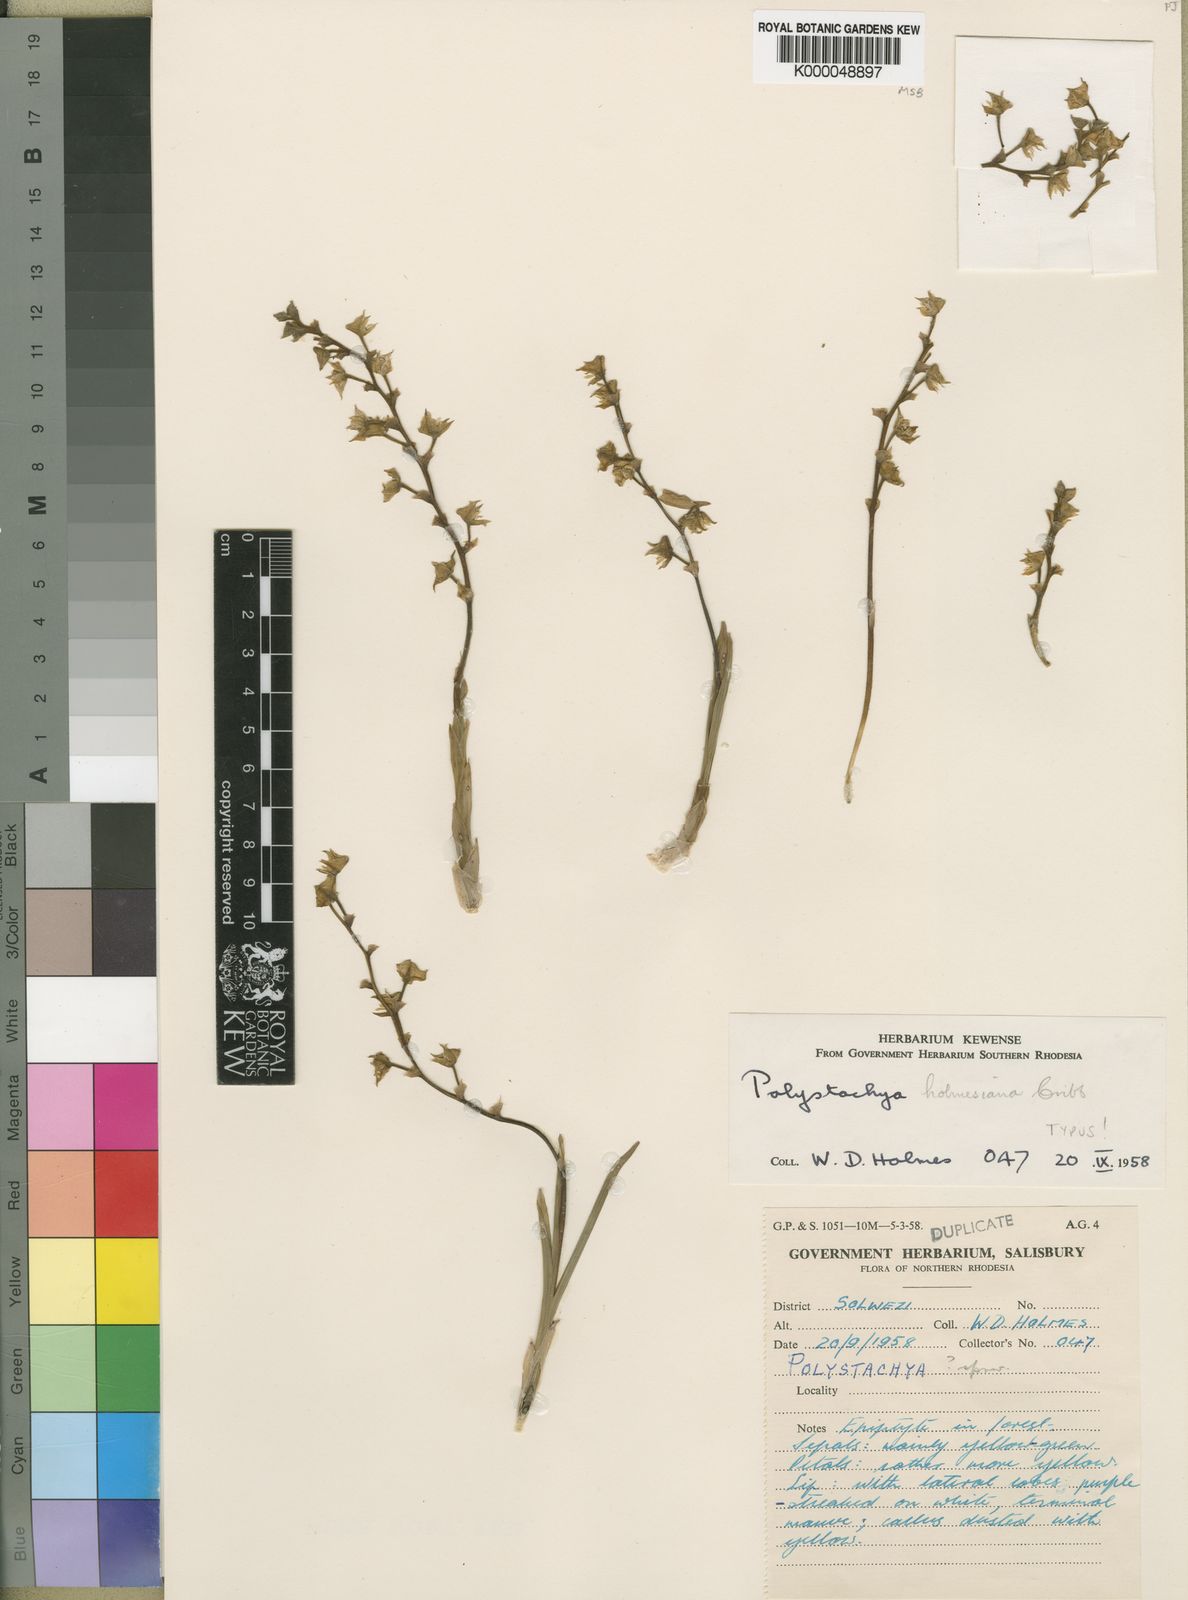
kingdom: Plantae
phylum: Tracheophyta
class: Liliopsida
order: Asparagales
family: Orchidaceae
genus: Polystachya
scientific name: Polystachya holmesiana
